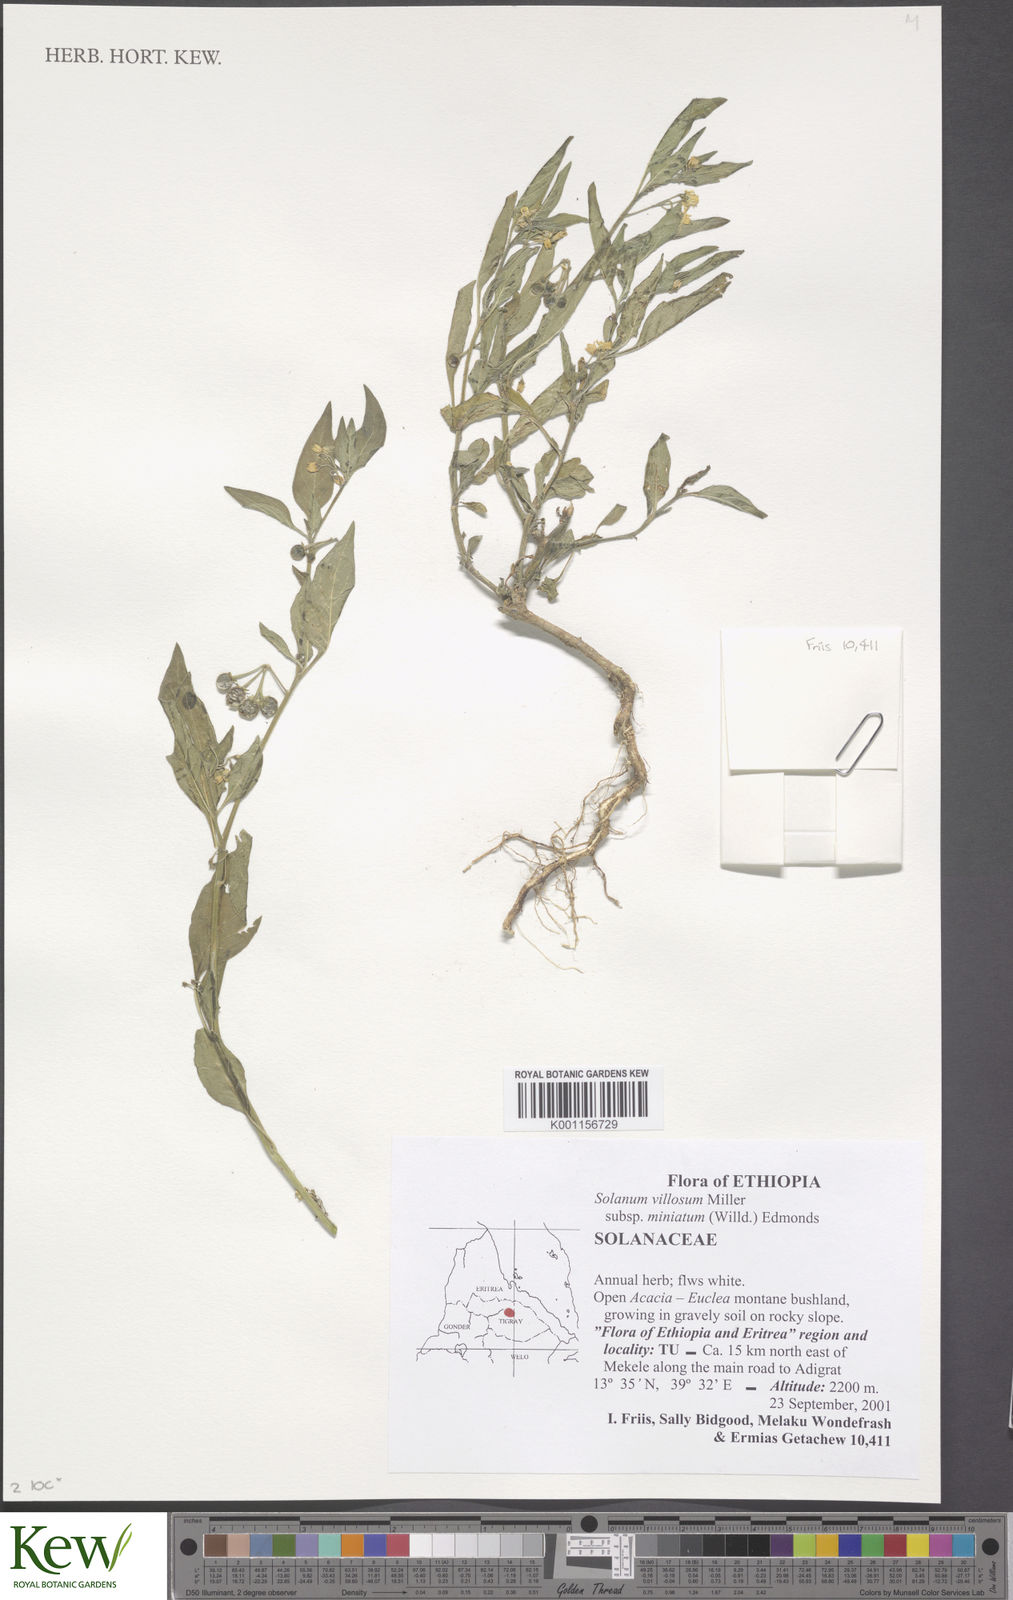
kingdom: Plantae
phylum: Tracheophyta
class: Magnoliopsida
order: Solanales
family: Solanaceae
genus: Solanum
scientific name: Solanum villosum
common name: Red nightshade
